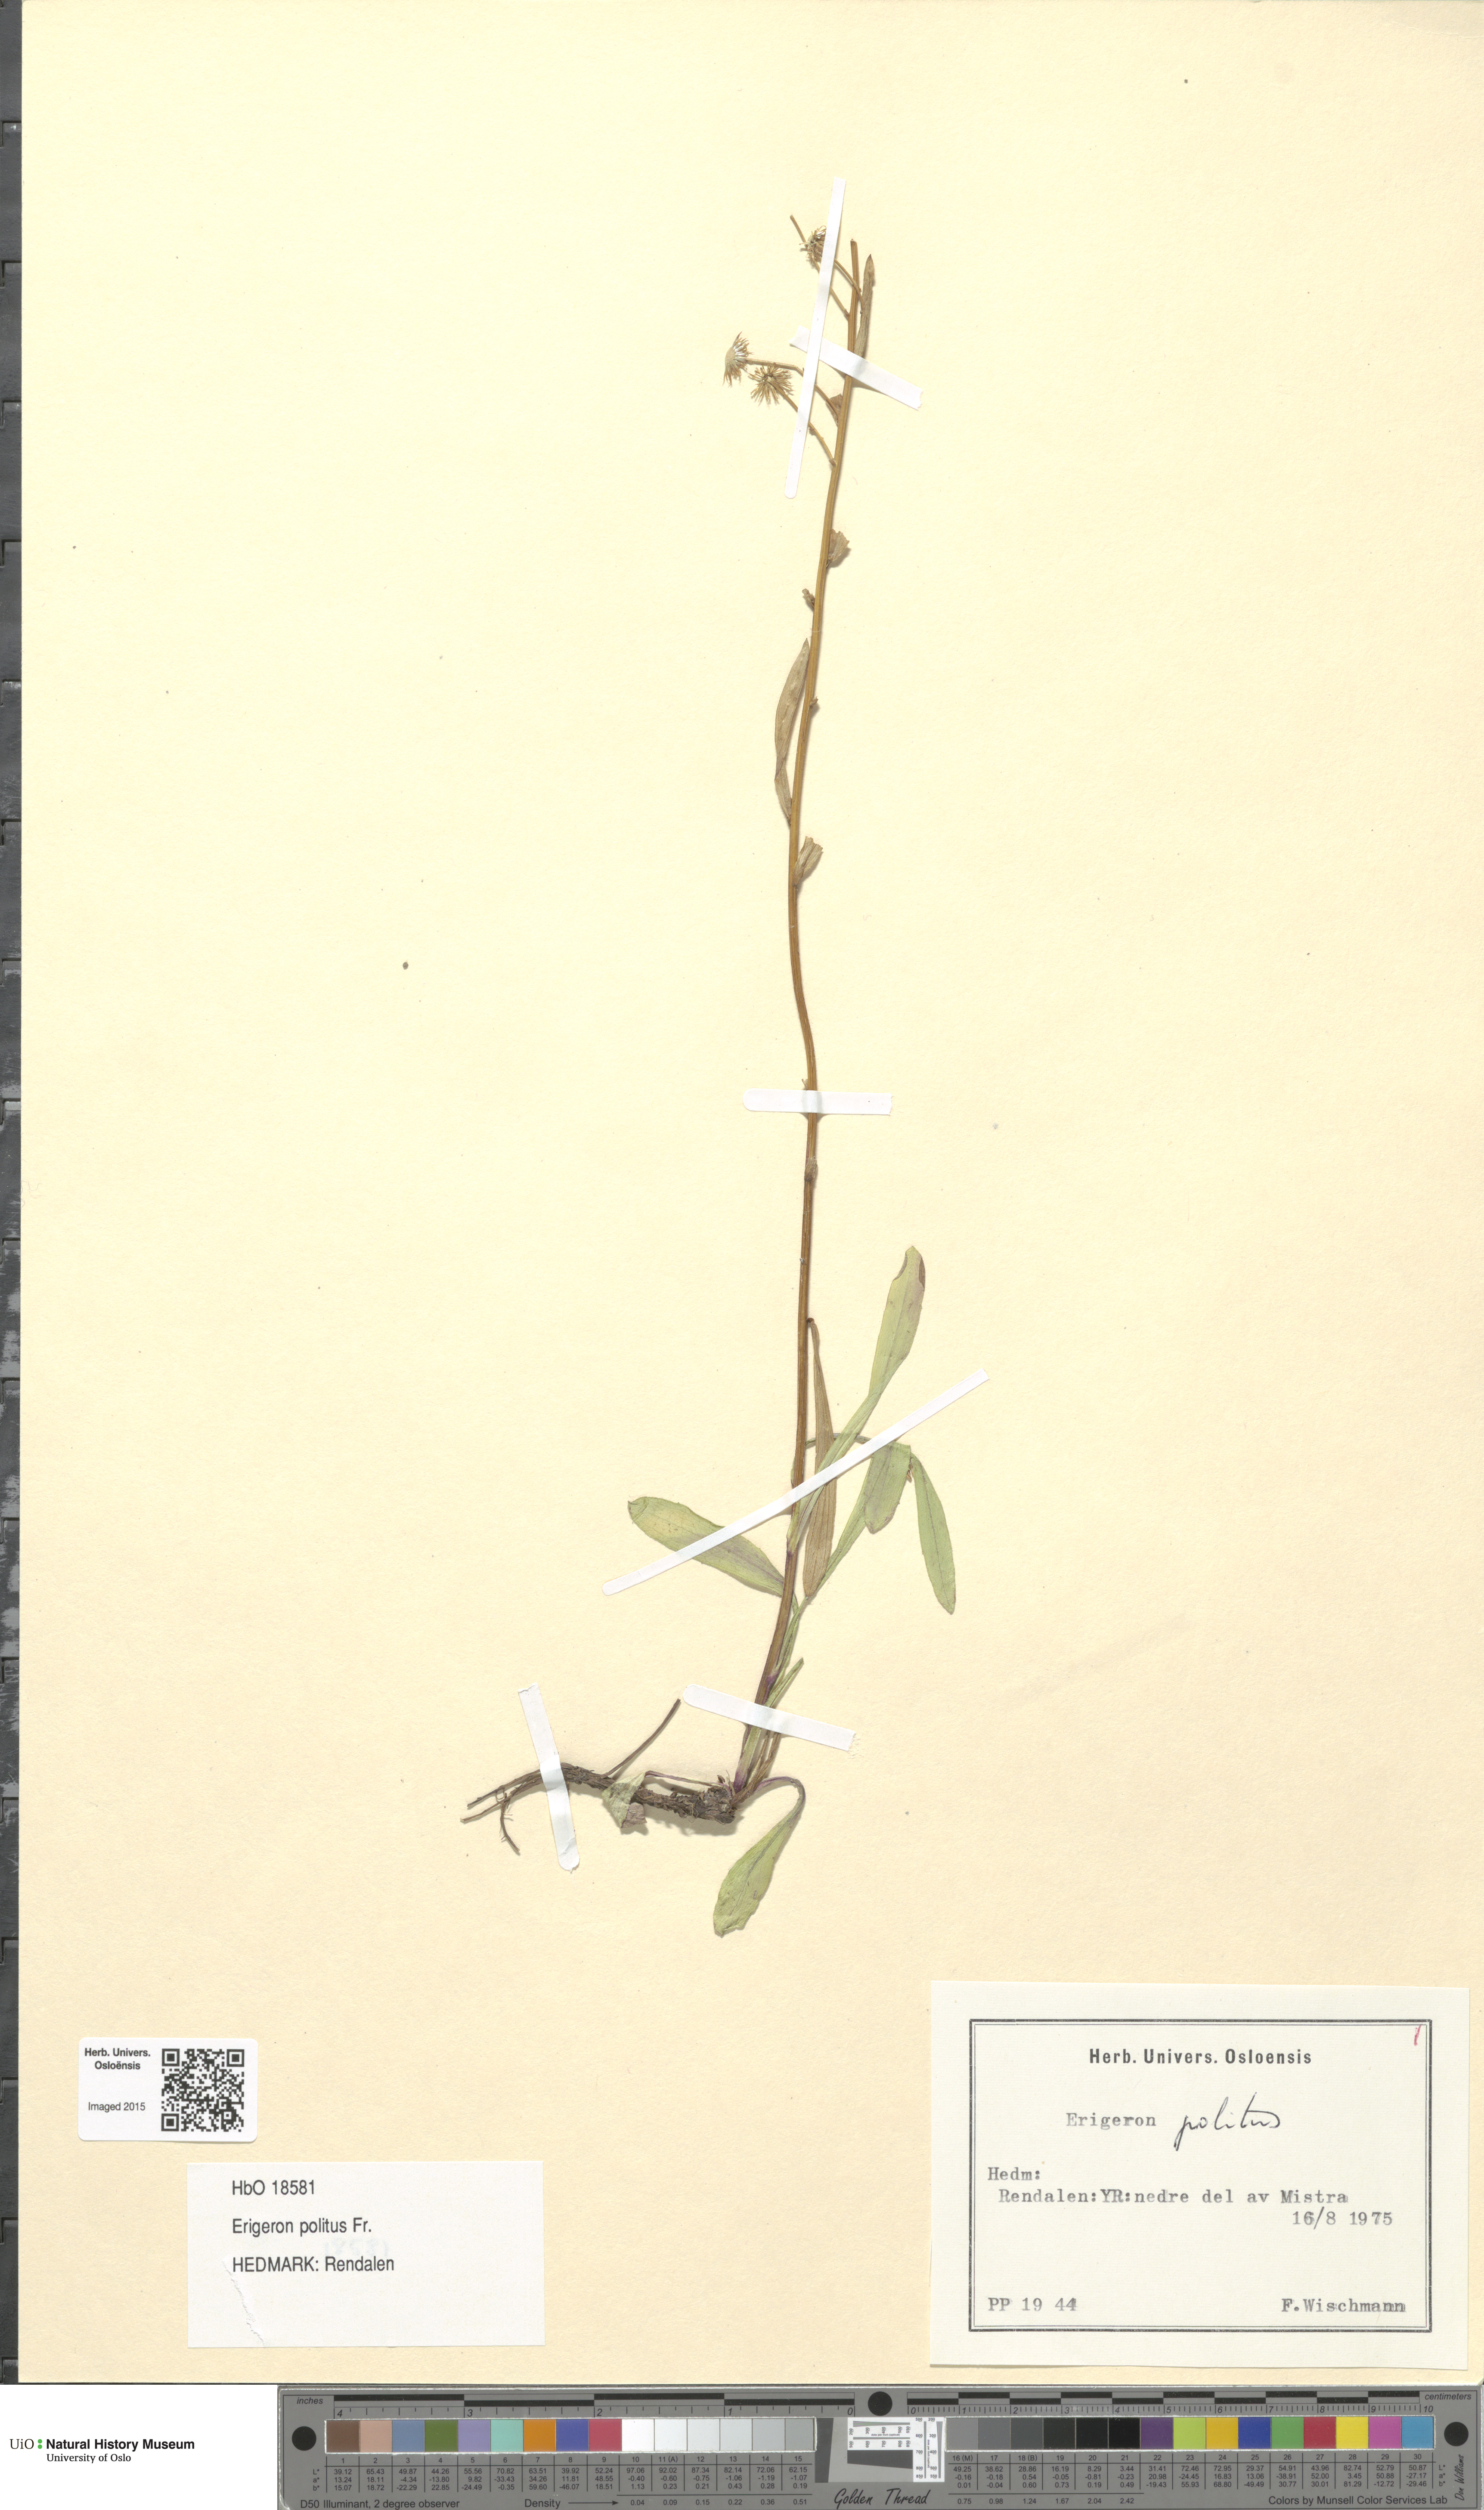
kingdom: Plantae
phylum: Tracheophyta
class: Magnoliopsida
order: Asterales
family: Asteraceae
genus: Erigeron
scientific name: Erigeron politus
